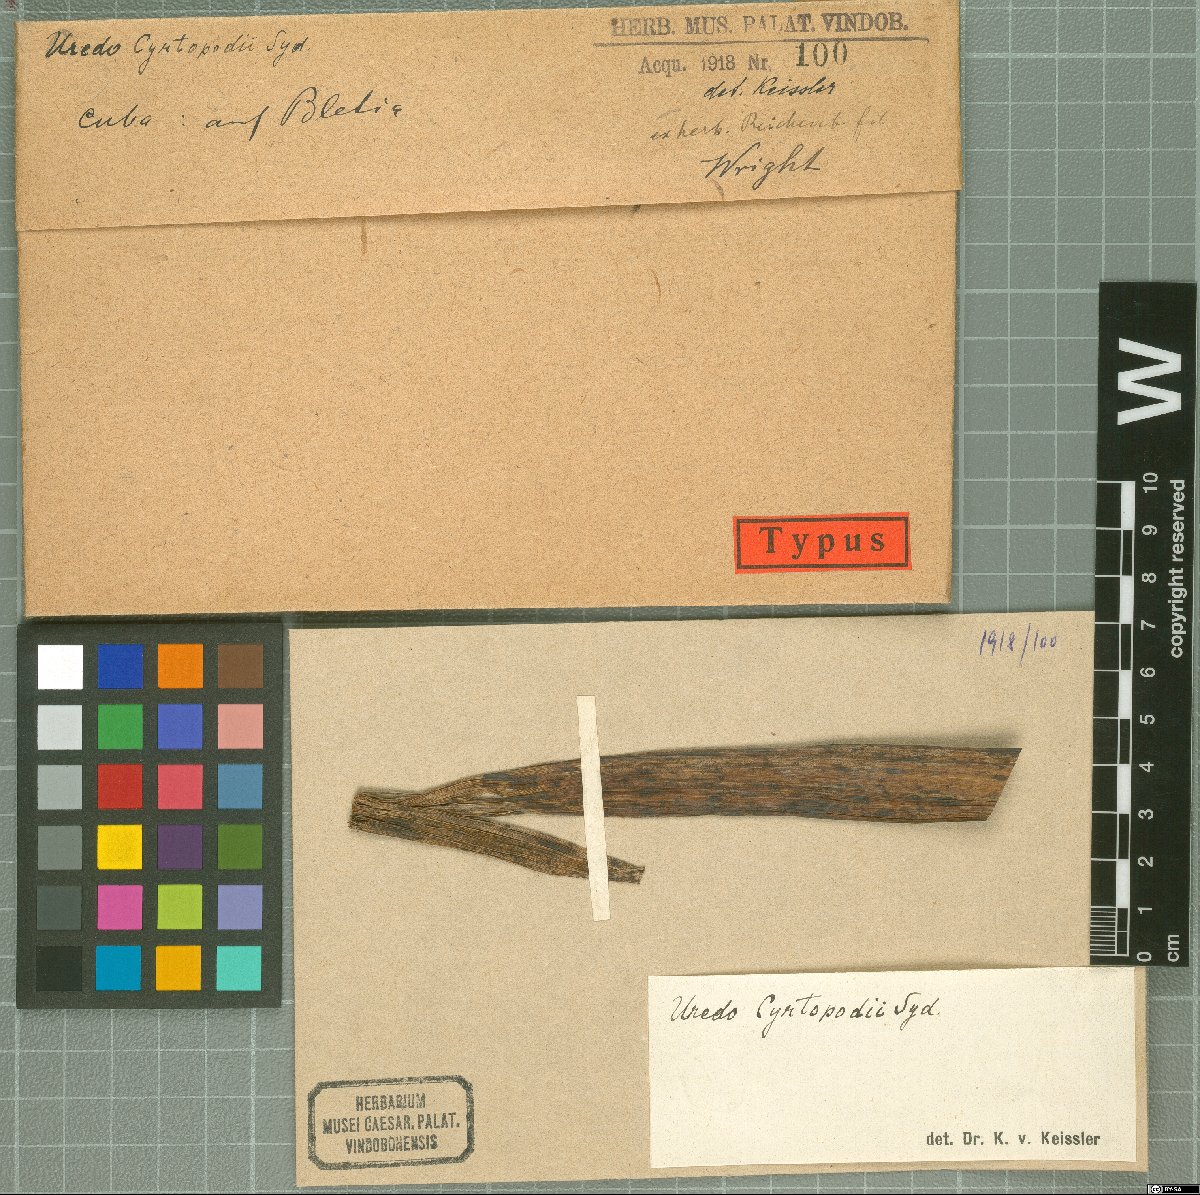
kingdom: Fungi
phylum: Basidiomycota
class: Pucciniomycetes
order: Pucciniales
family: Pucciniaceae
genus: Uredo
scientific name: Uredo cyrtopodii
